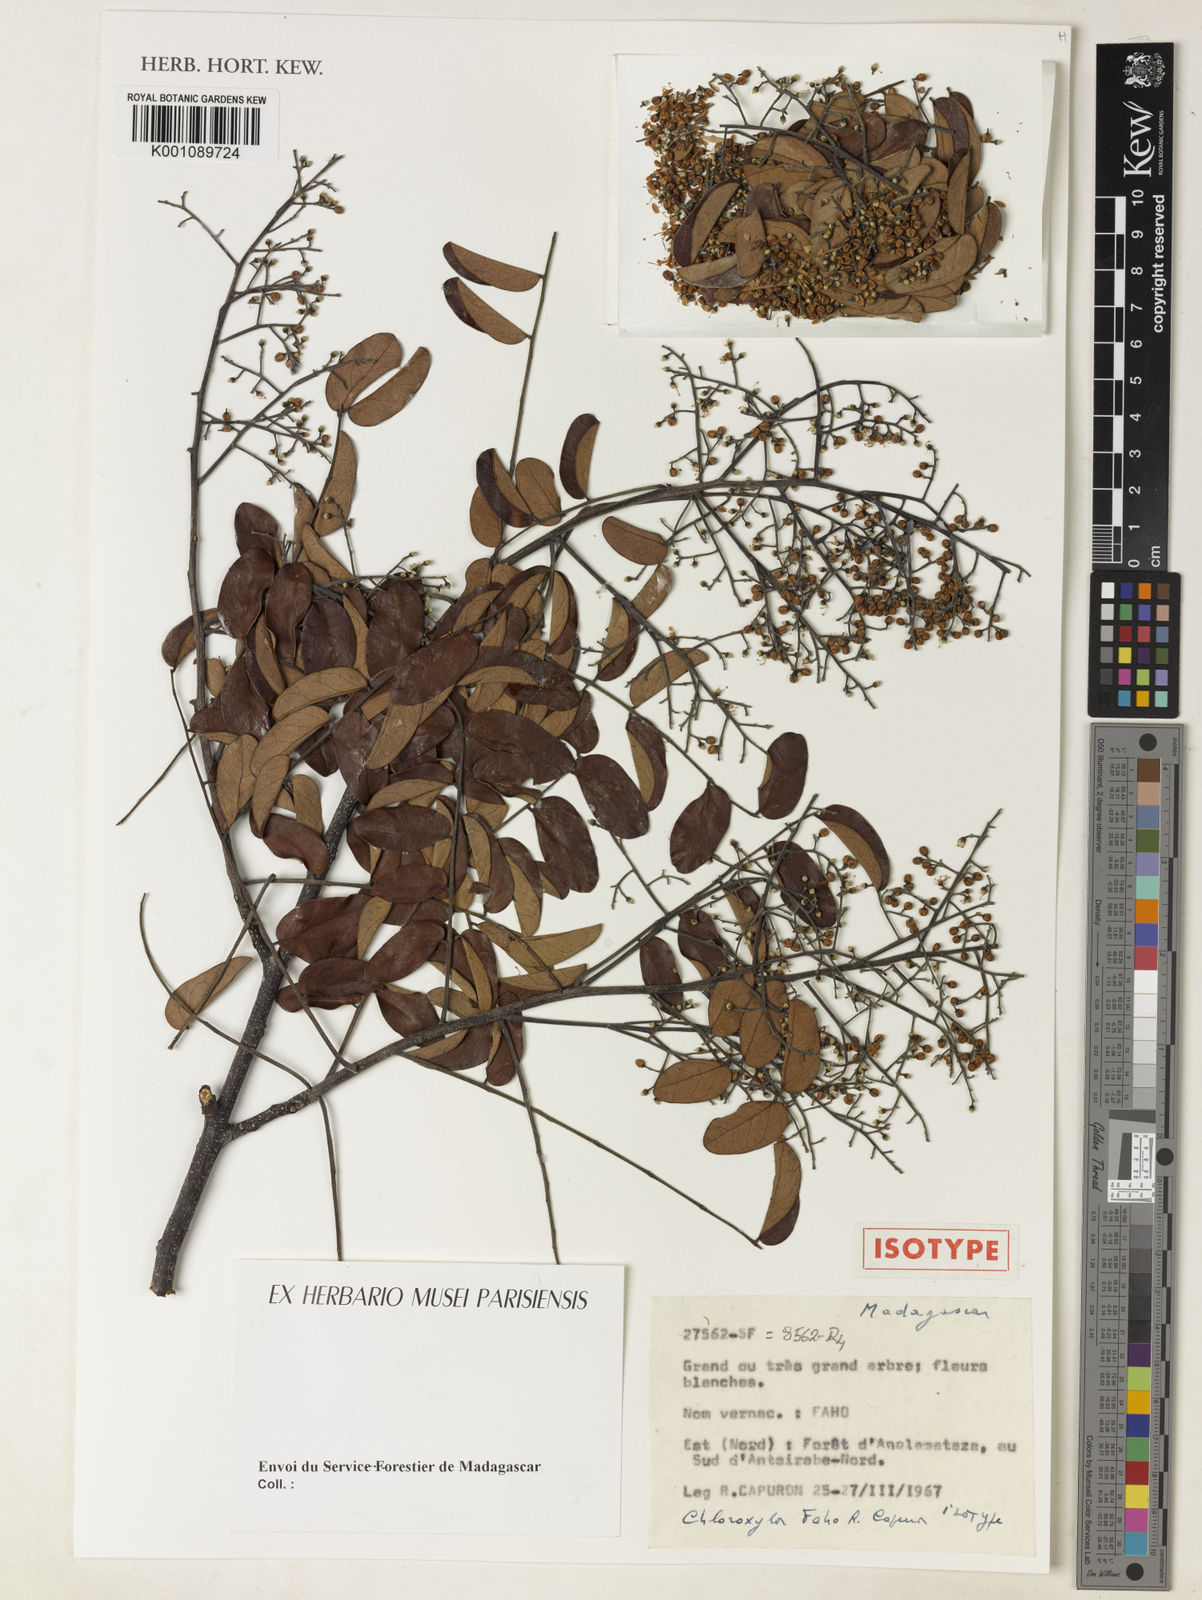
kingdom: Plantae
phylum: Tracheophyta
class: Magnoliopsida
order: Sapindales
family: Rutaceae
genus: Chloroxylon
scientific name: Chloroxylon faho
